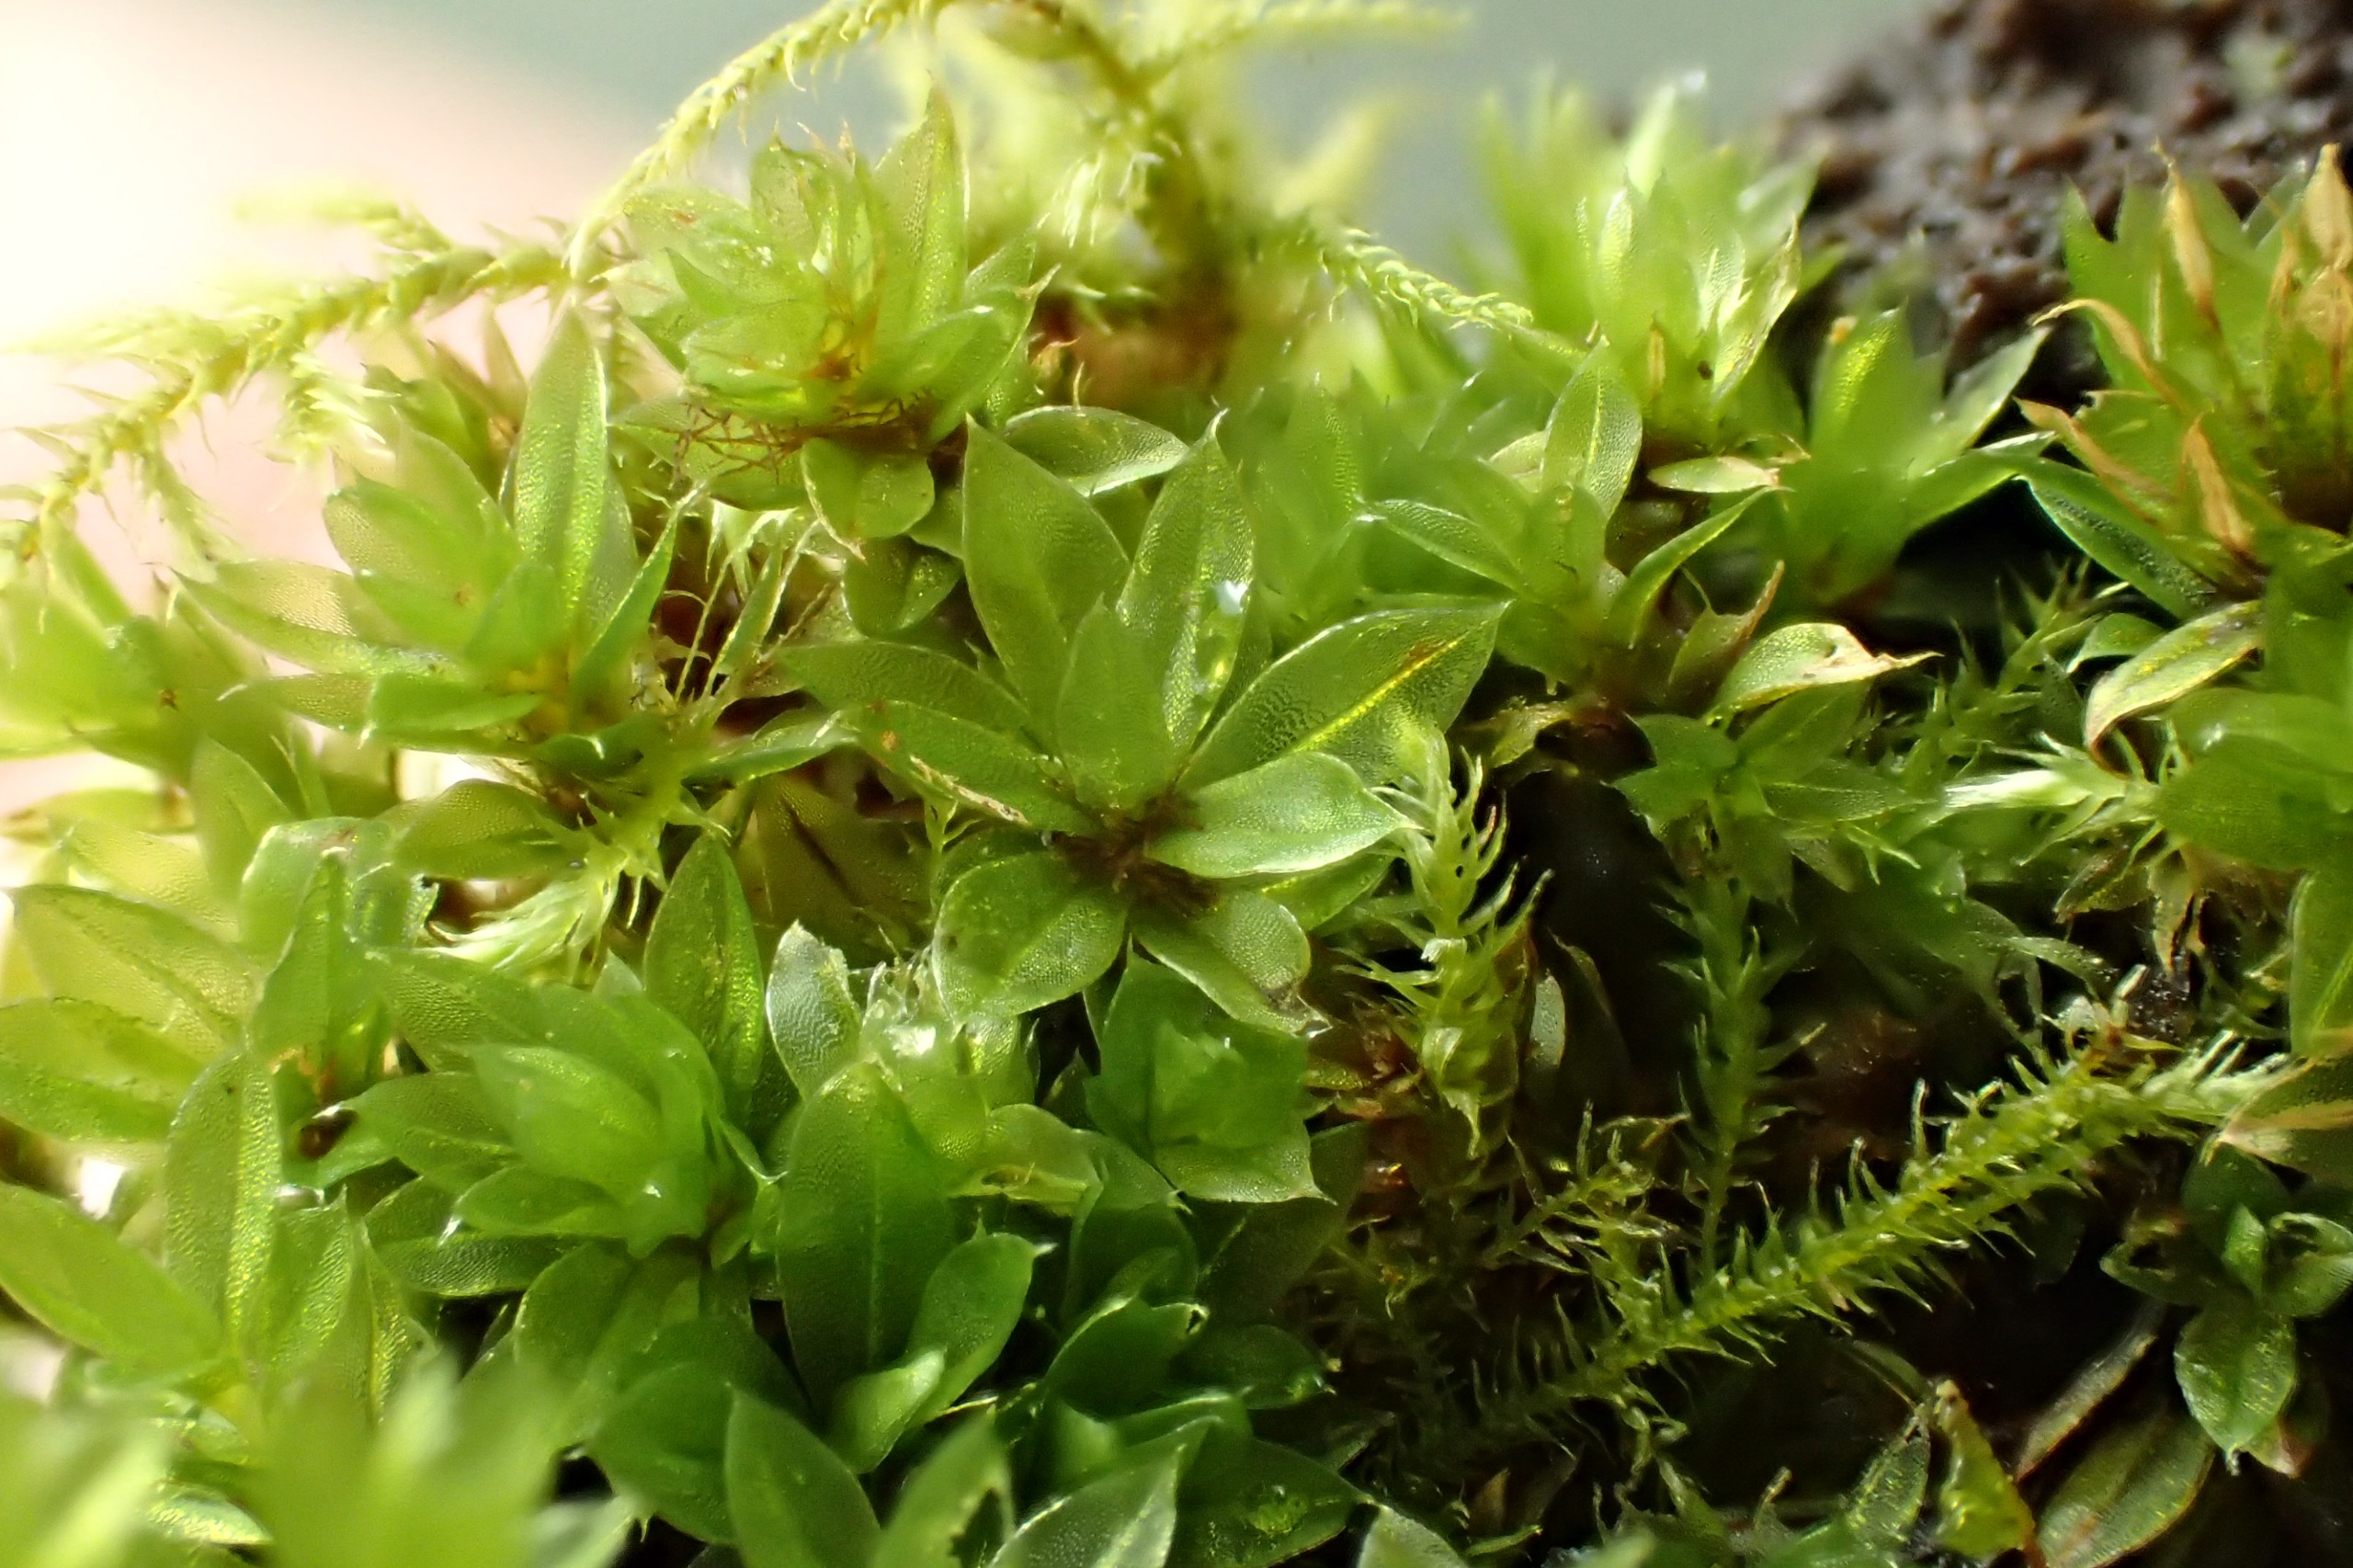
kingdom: Plantae
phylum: Bryophyta
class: Bryopsida
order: Bryales
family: Bryaceae
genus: Rosulabryum
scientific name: Rosulabryum moravicum
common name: Bark-bryum
